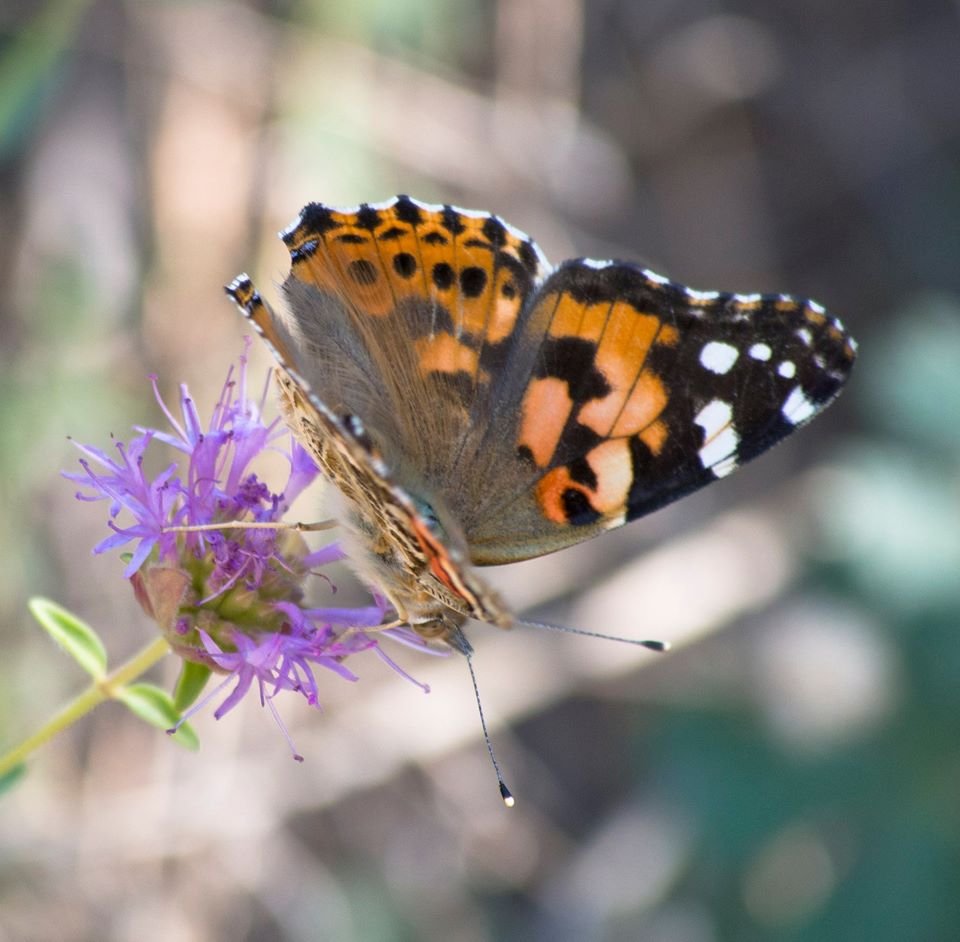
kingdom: Animalia
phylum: Arthropoda
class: Insecta
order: Lepidoptera
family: Nymphalidae
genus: Vanessa
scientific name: Vanessa cardui
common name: Painted Lady
